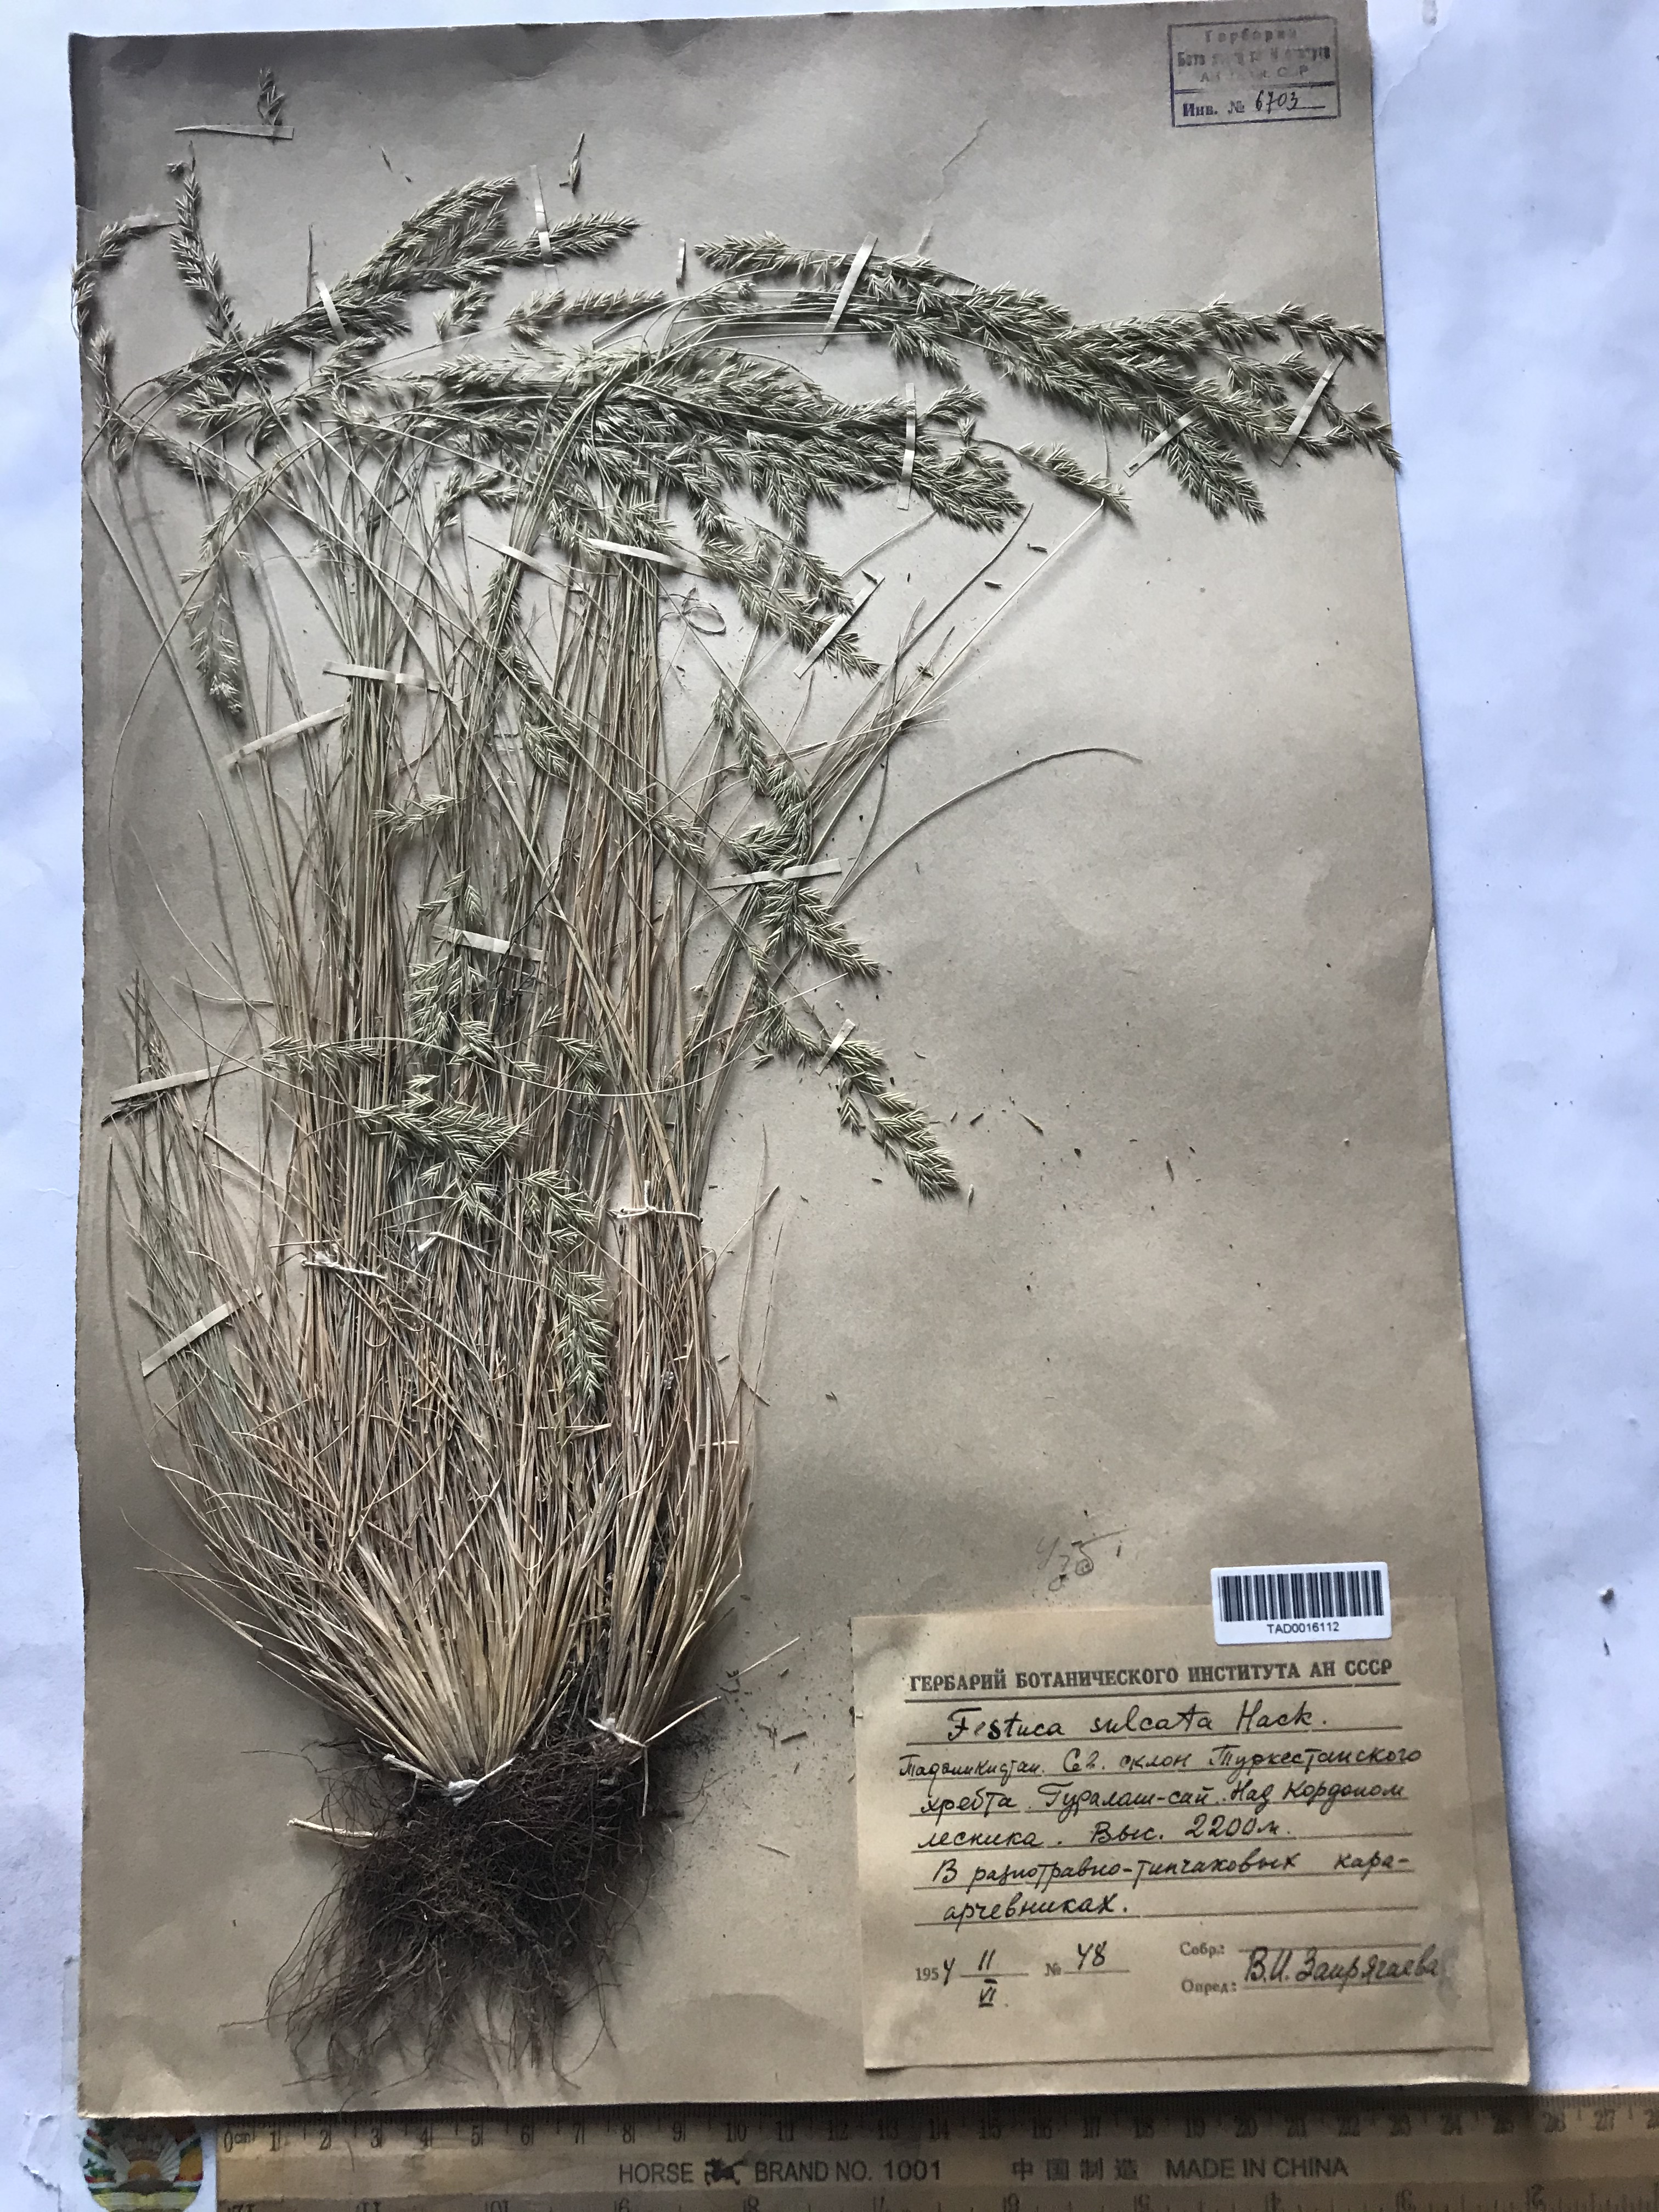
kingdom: Plantae
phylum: Tracheophyta
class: Liliopsida
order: Poales
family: Poaceae
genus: Festuca
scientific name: Festuca sulcata
